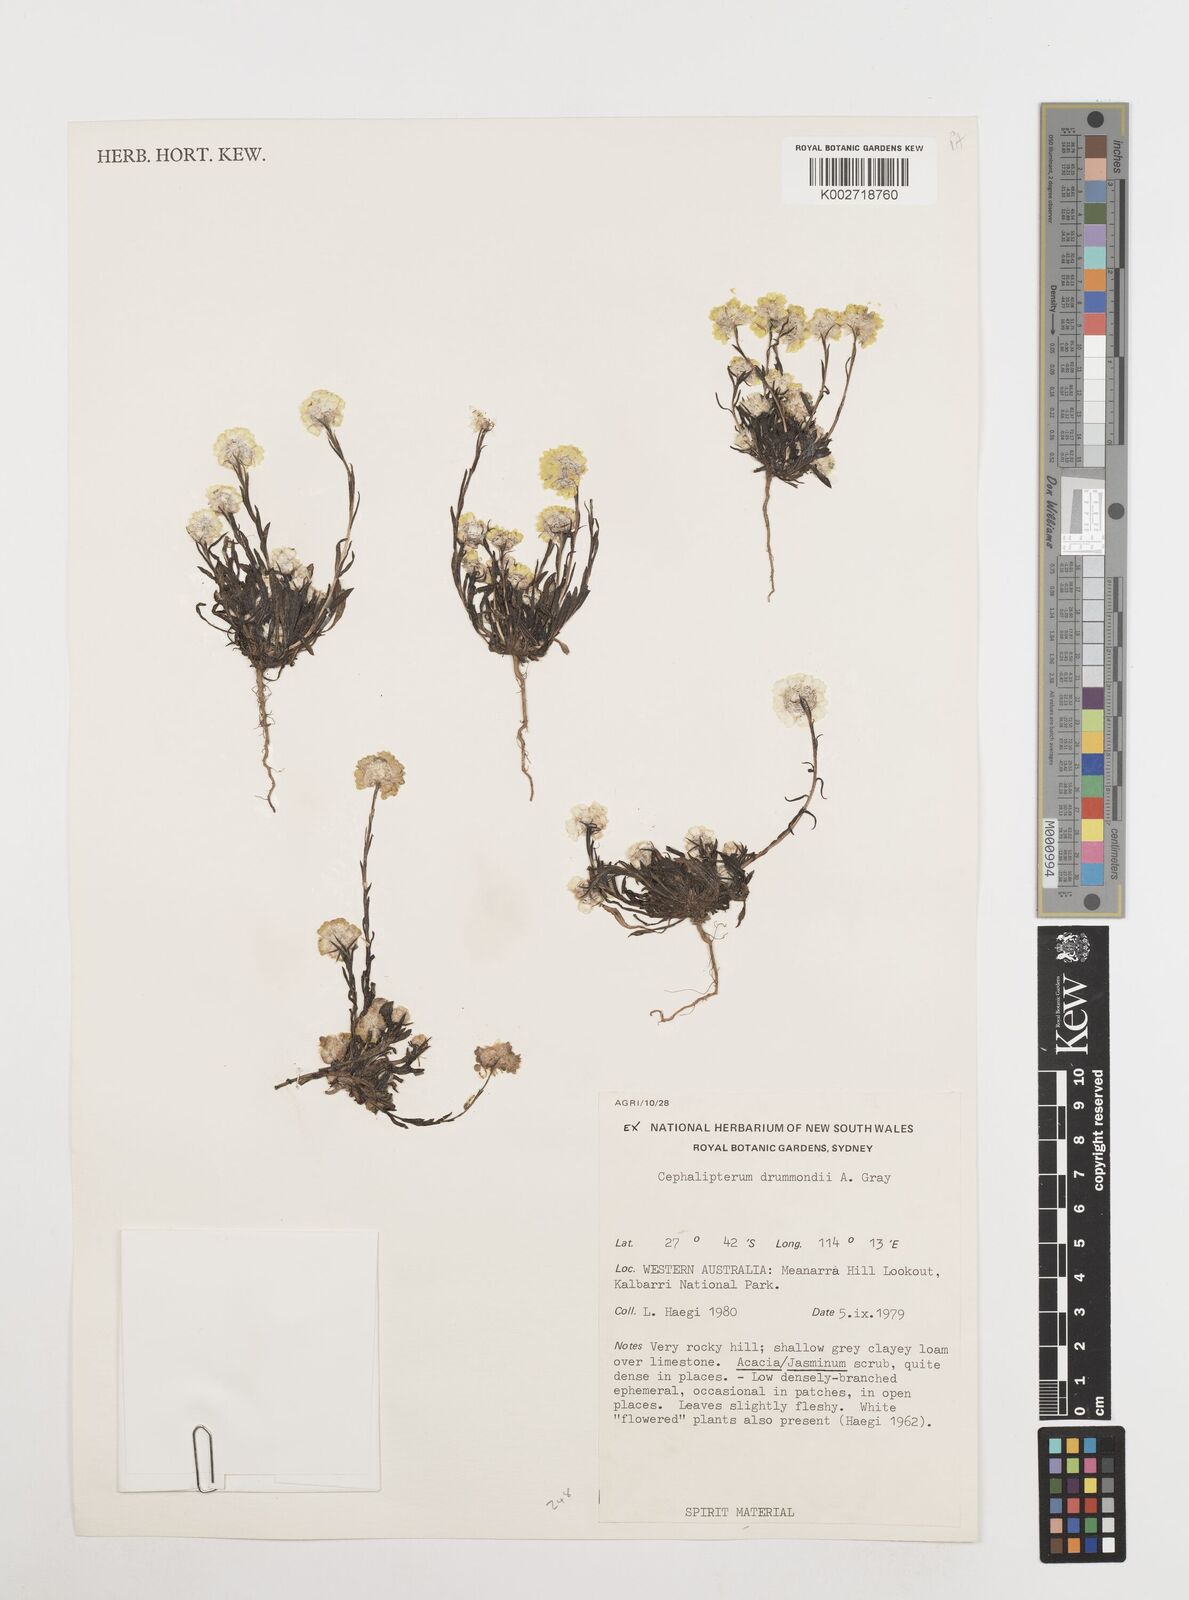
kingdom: Plantae
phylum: Tracheophyta
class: Magnoliopsida
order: Asterales
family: Asteraceae
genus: Cephalipterum
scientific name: Cephalipterum drummondii
